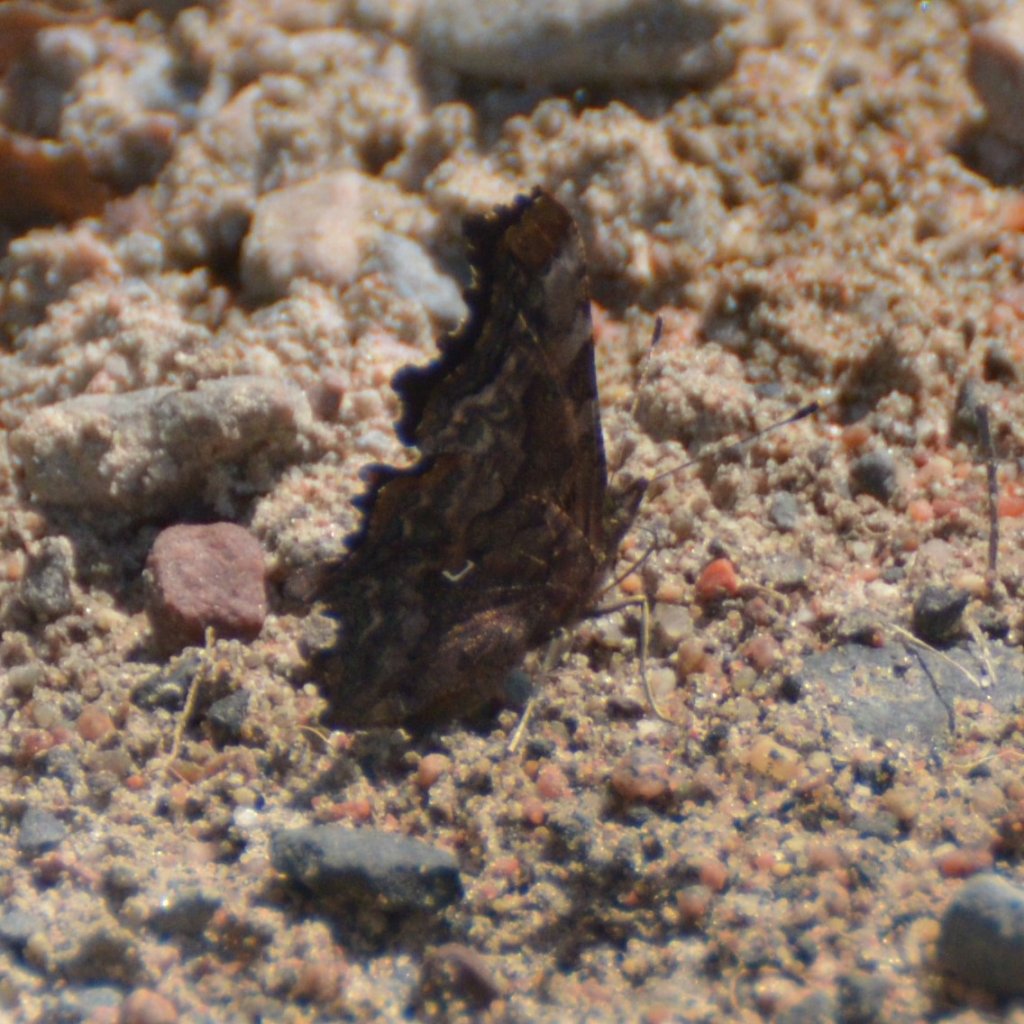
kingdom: Animalia
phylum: Arthropoda
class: Insecta
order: Lepidoptera
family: Nymphalidae
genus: Polygonia
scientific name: Polygonia faunus
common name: Green Comma
